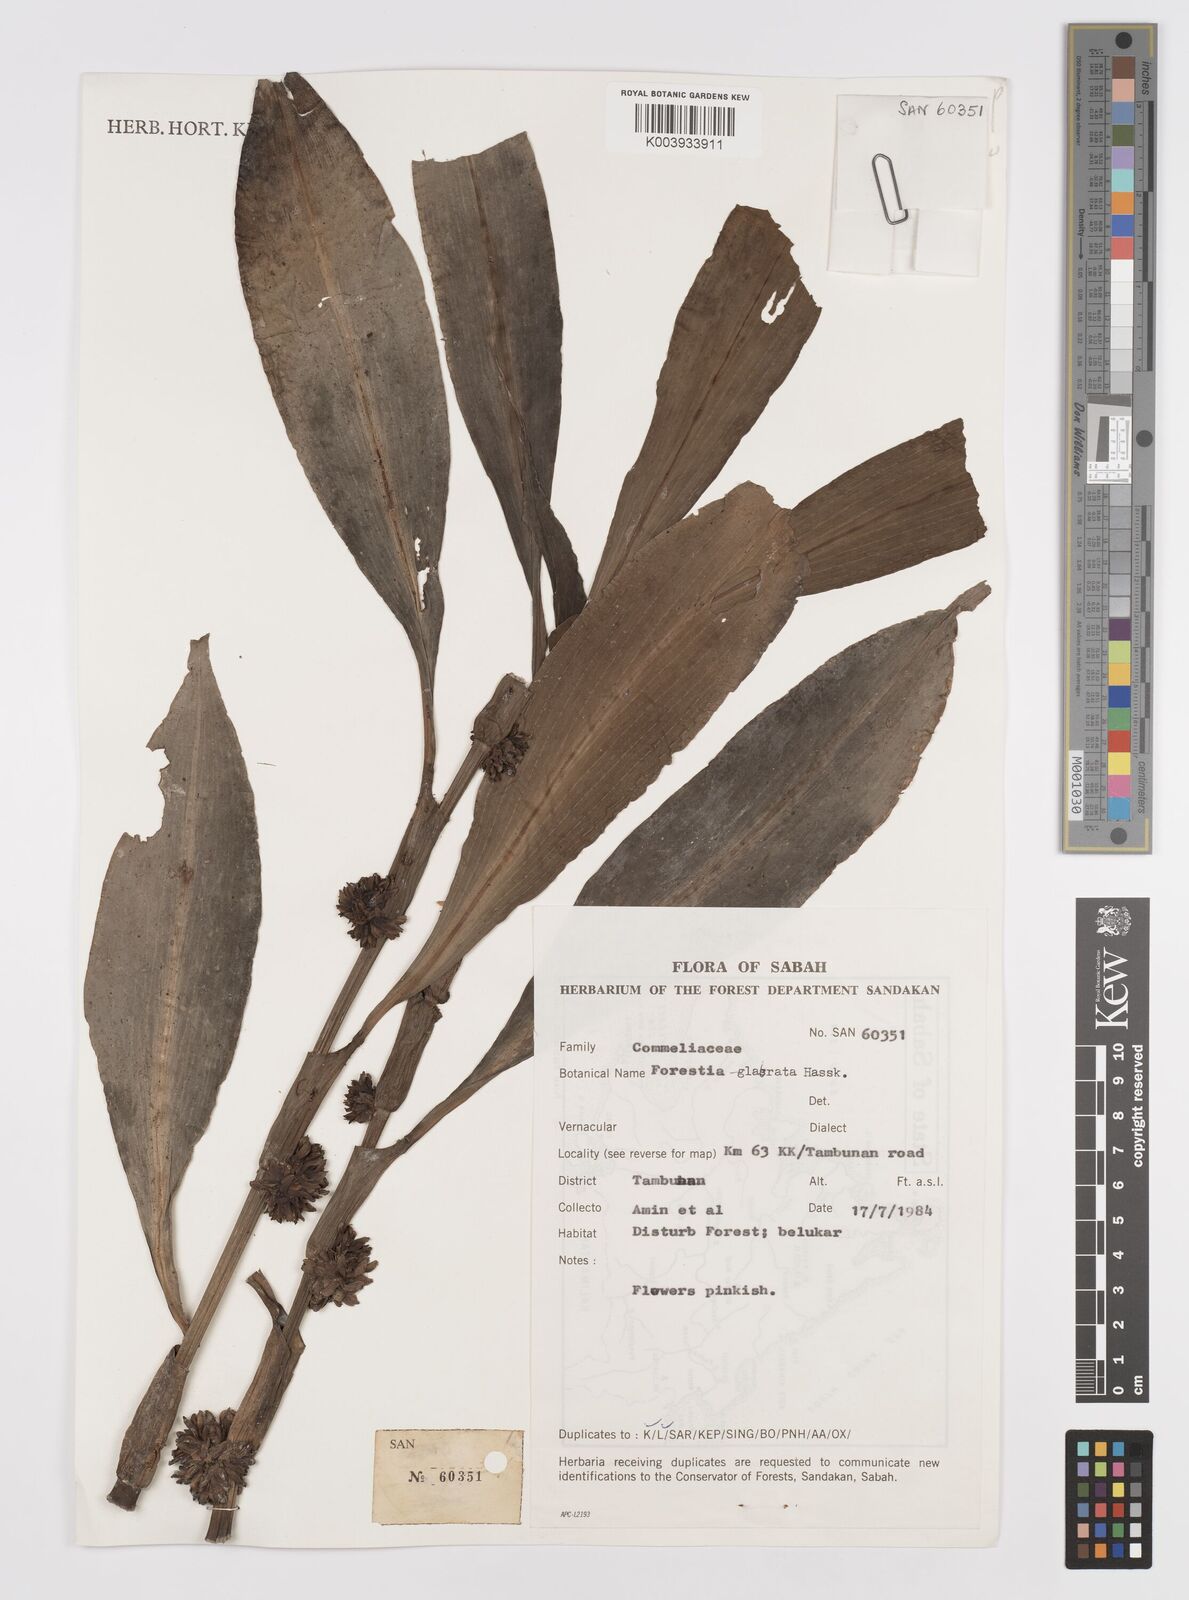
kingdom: Plantae
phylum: Tracheophyta
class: Liliopsida
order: Commelinales
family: Commelinaceae
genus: Amischotolype
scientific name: Amischotolype glabrata
